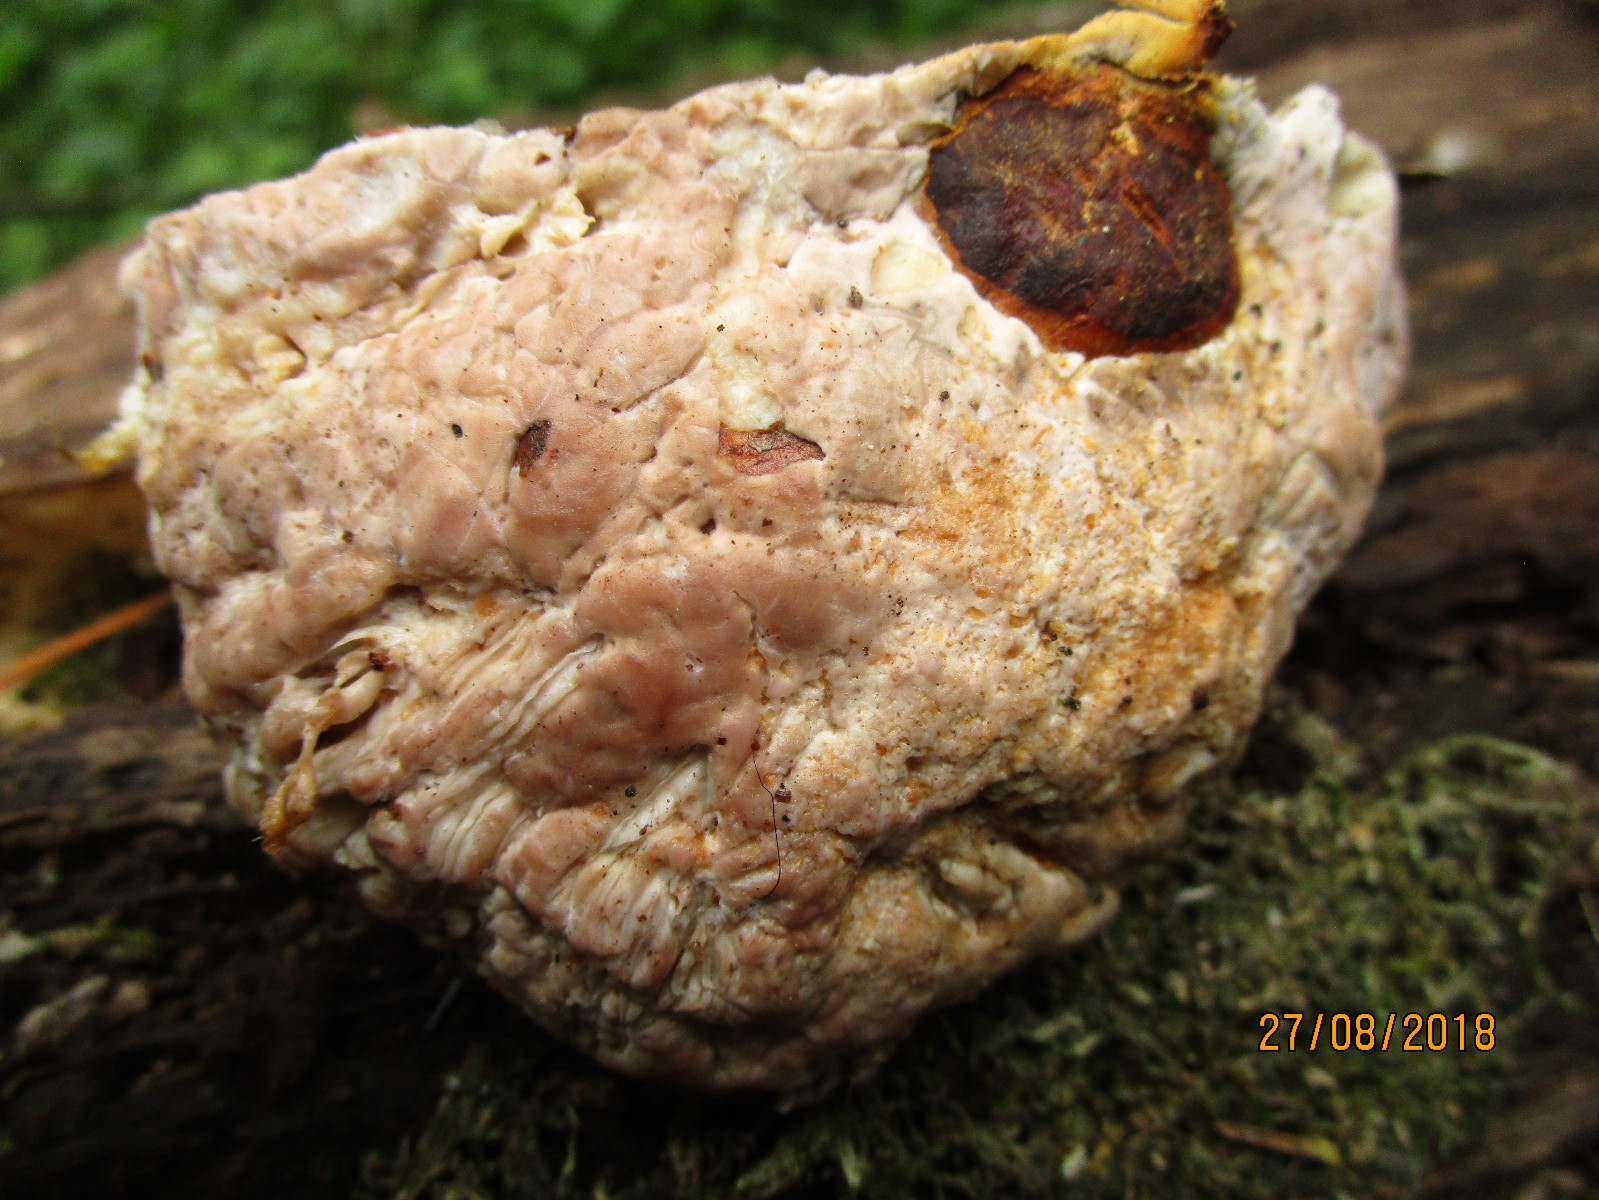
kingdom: Fungi
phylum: Basidiomycota
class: Agaricomycetes
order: Polyporales
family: Fomitopsidaceae
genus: Fomitopsis
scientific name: Fomitopsis pinicola
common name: randbæltet hovporesvamp
